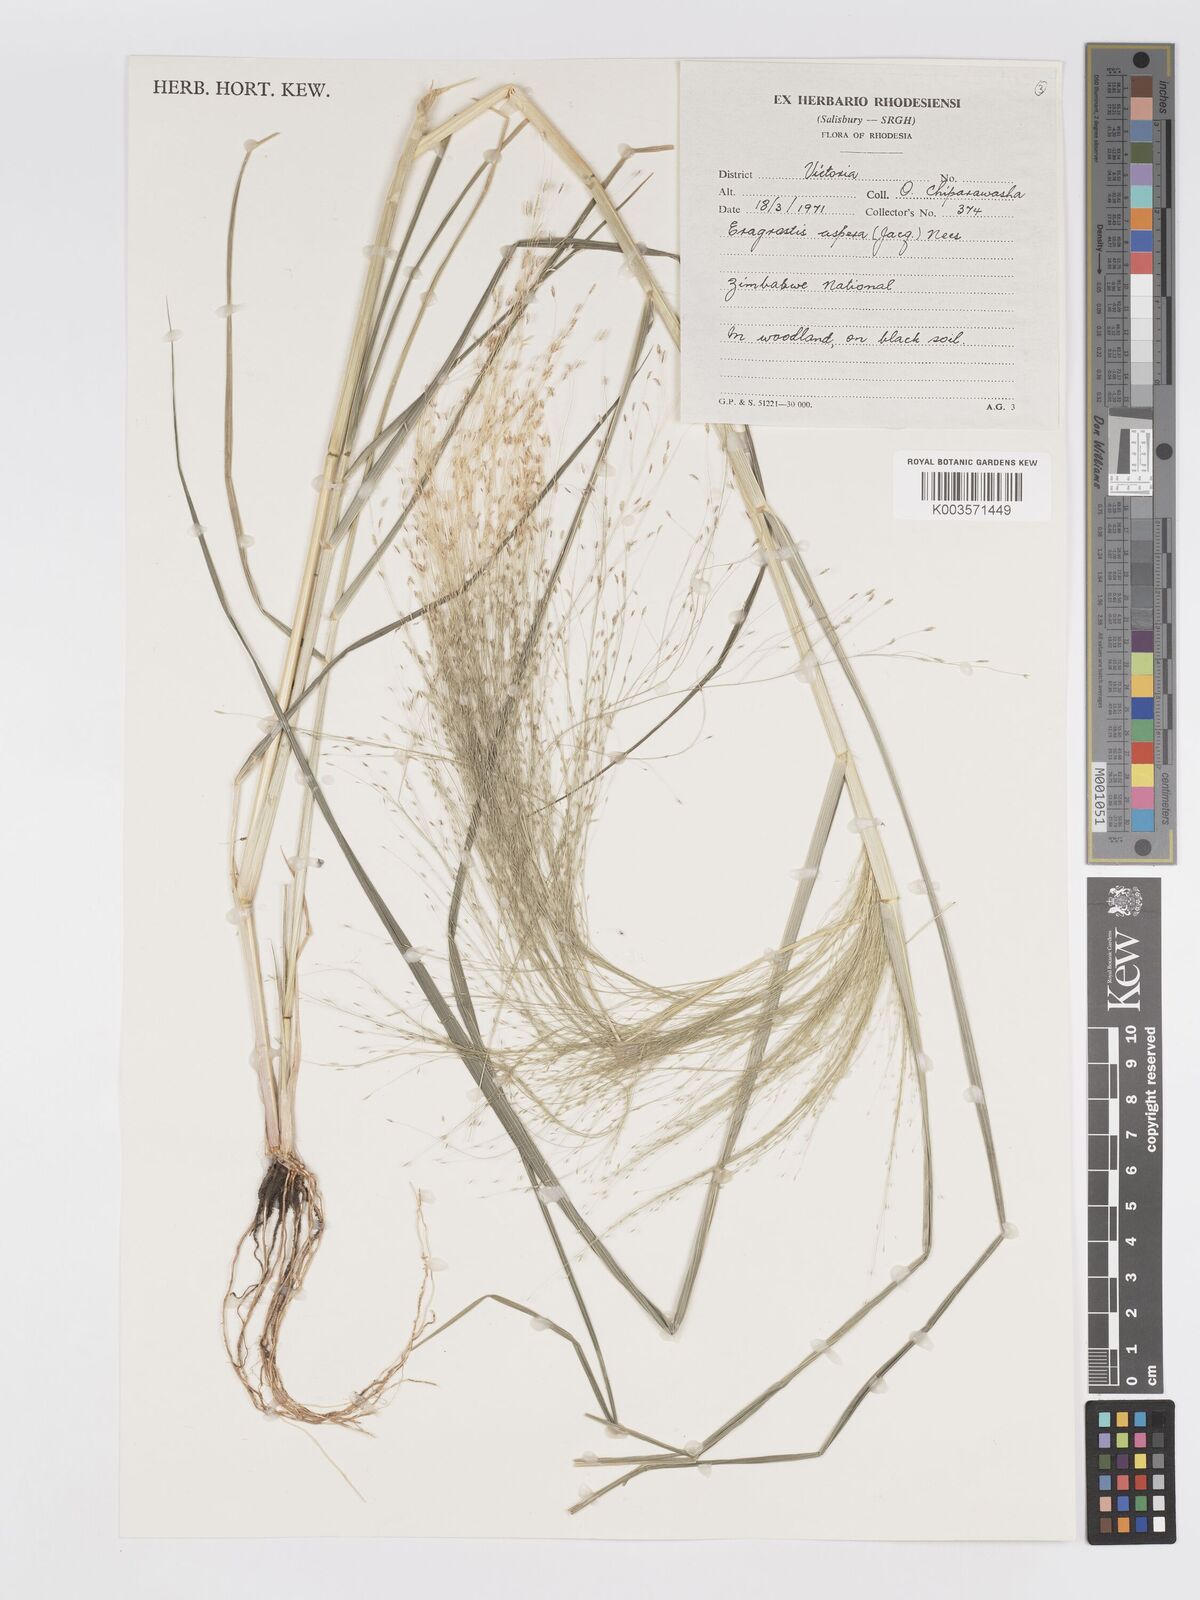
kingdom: Plantae
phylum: Tracheophyta
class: Liliopsida
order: Poales
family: Poaceae
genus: Eragrostis
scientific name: Eragrostis aspera
